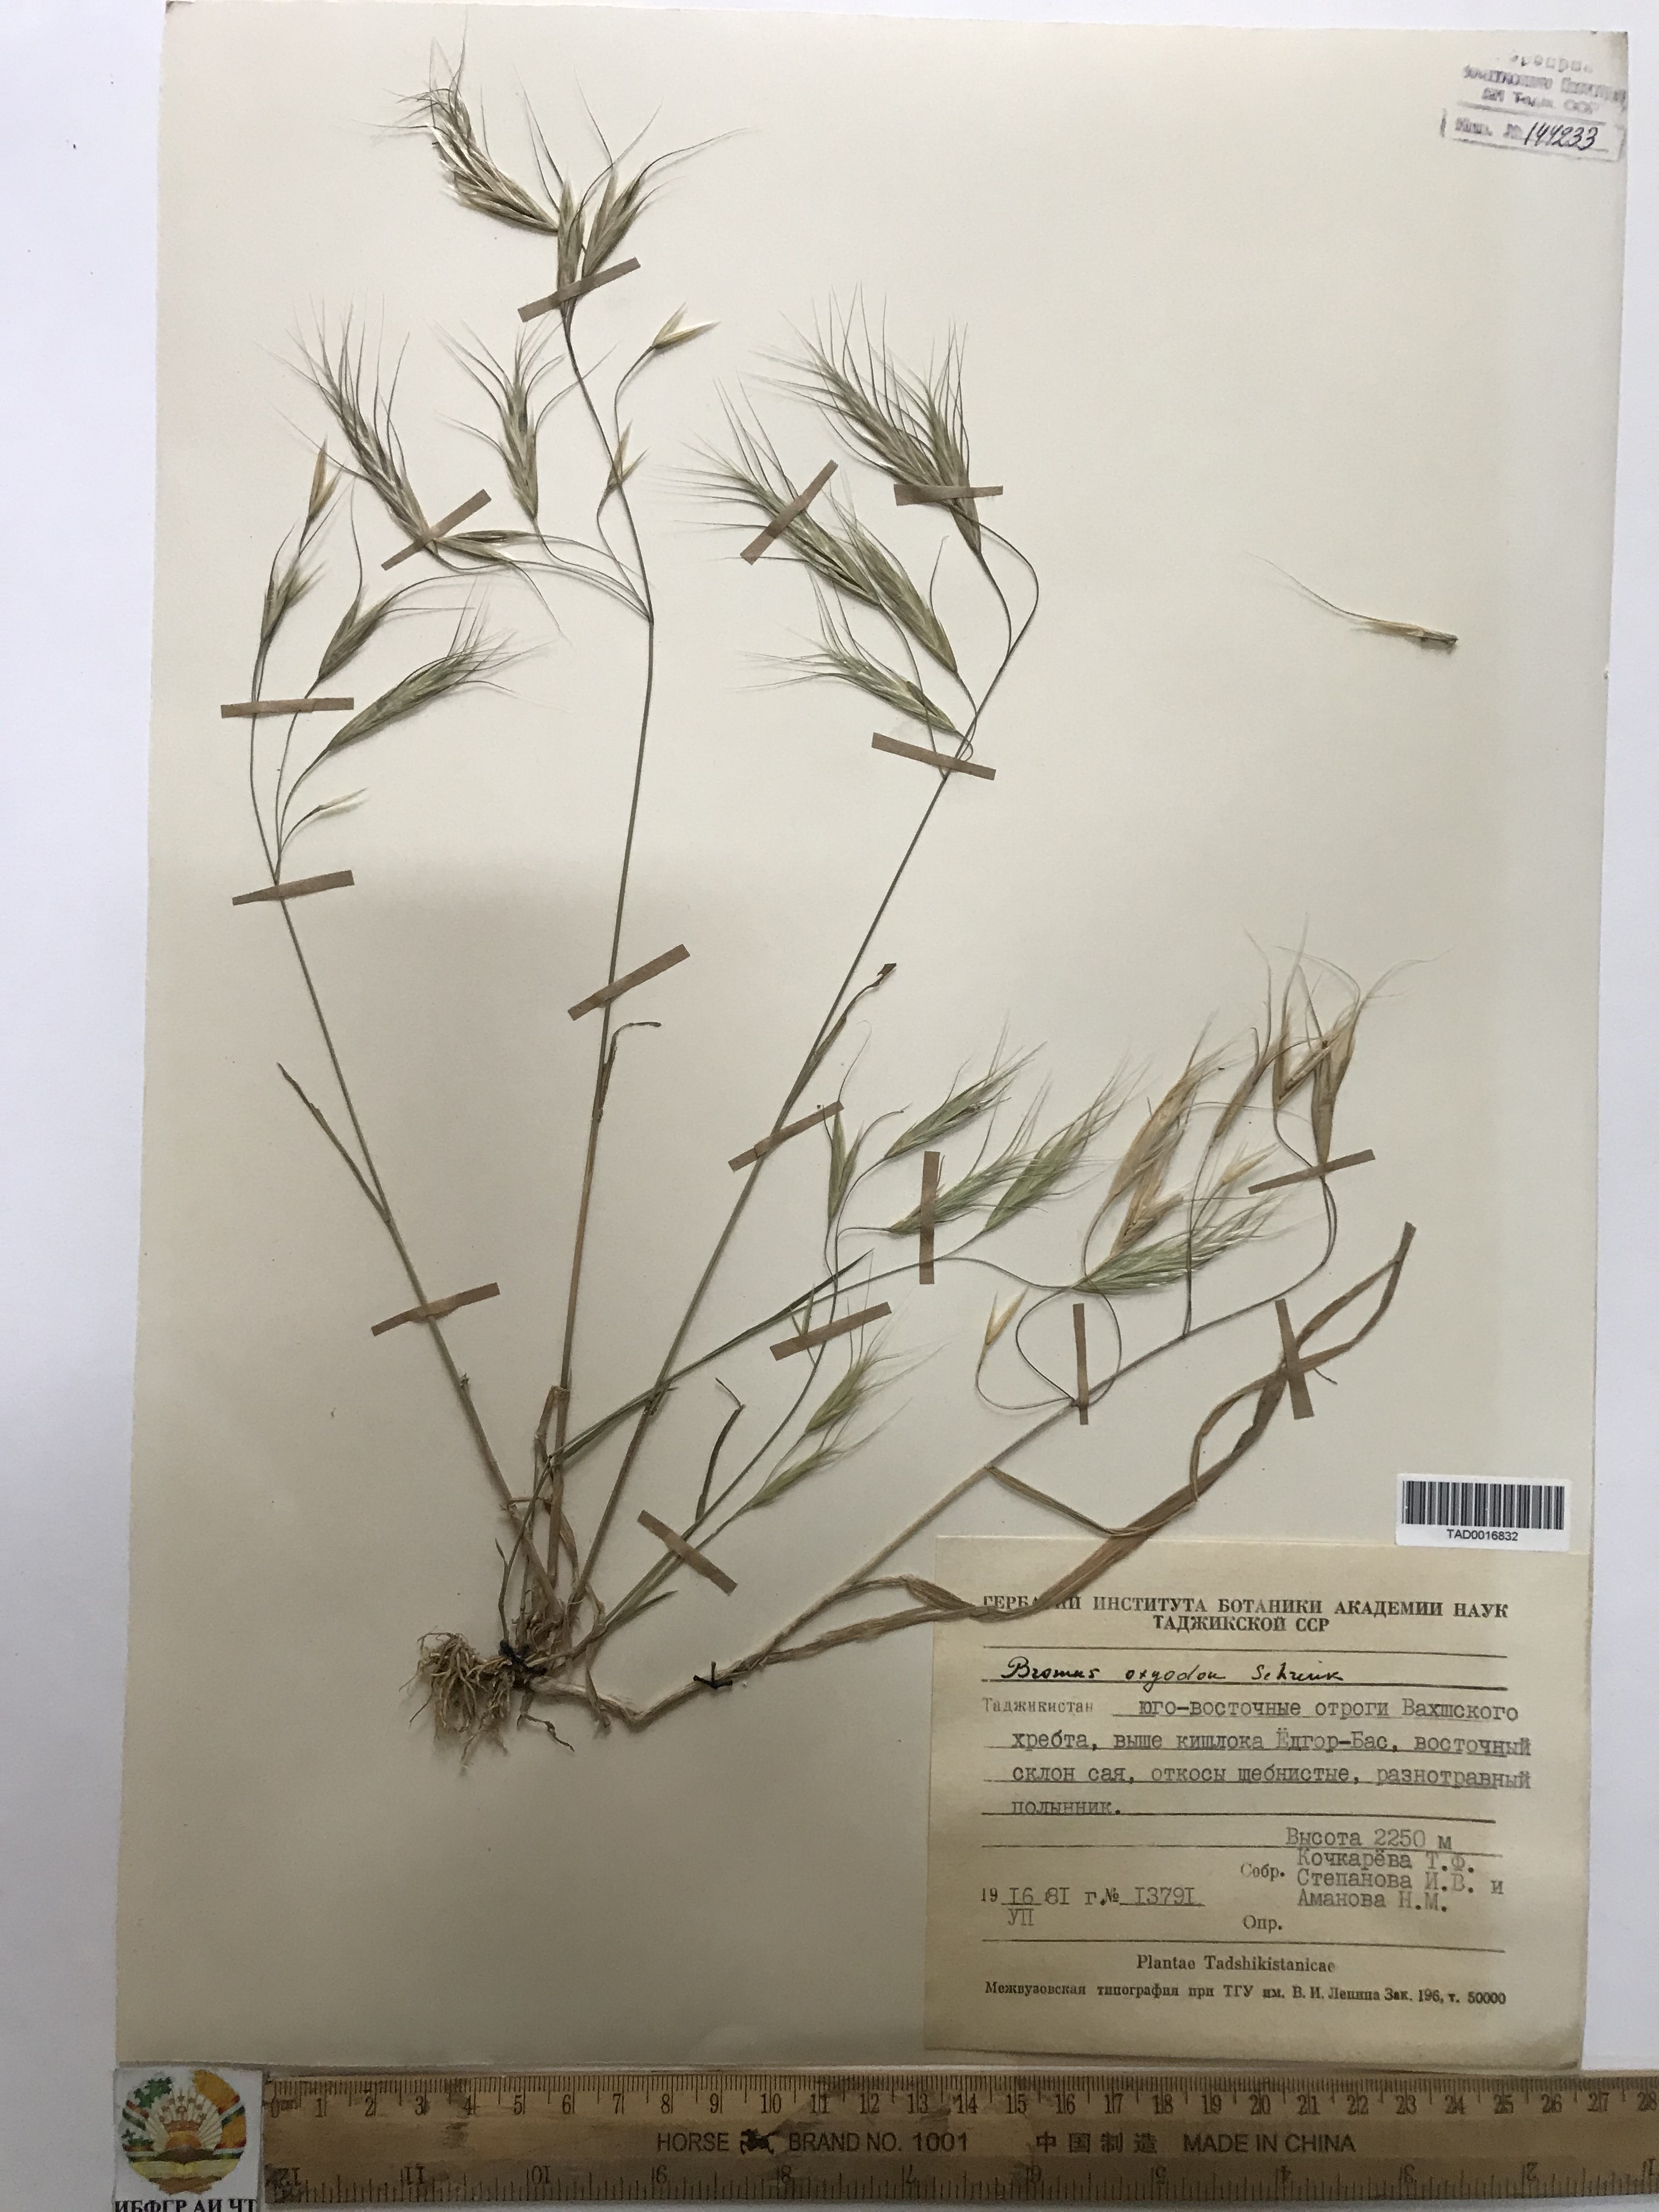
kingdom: Plantae
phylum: Tracheophyta
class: Liliopsida
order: Poales
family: Poaceae
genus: Bromus
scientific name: Bromus oxyodon
